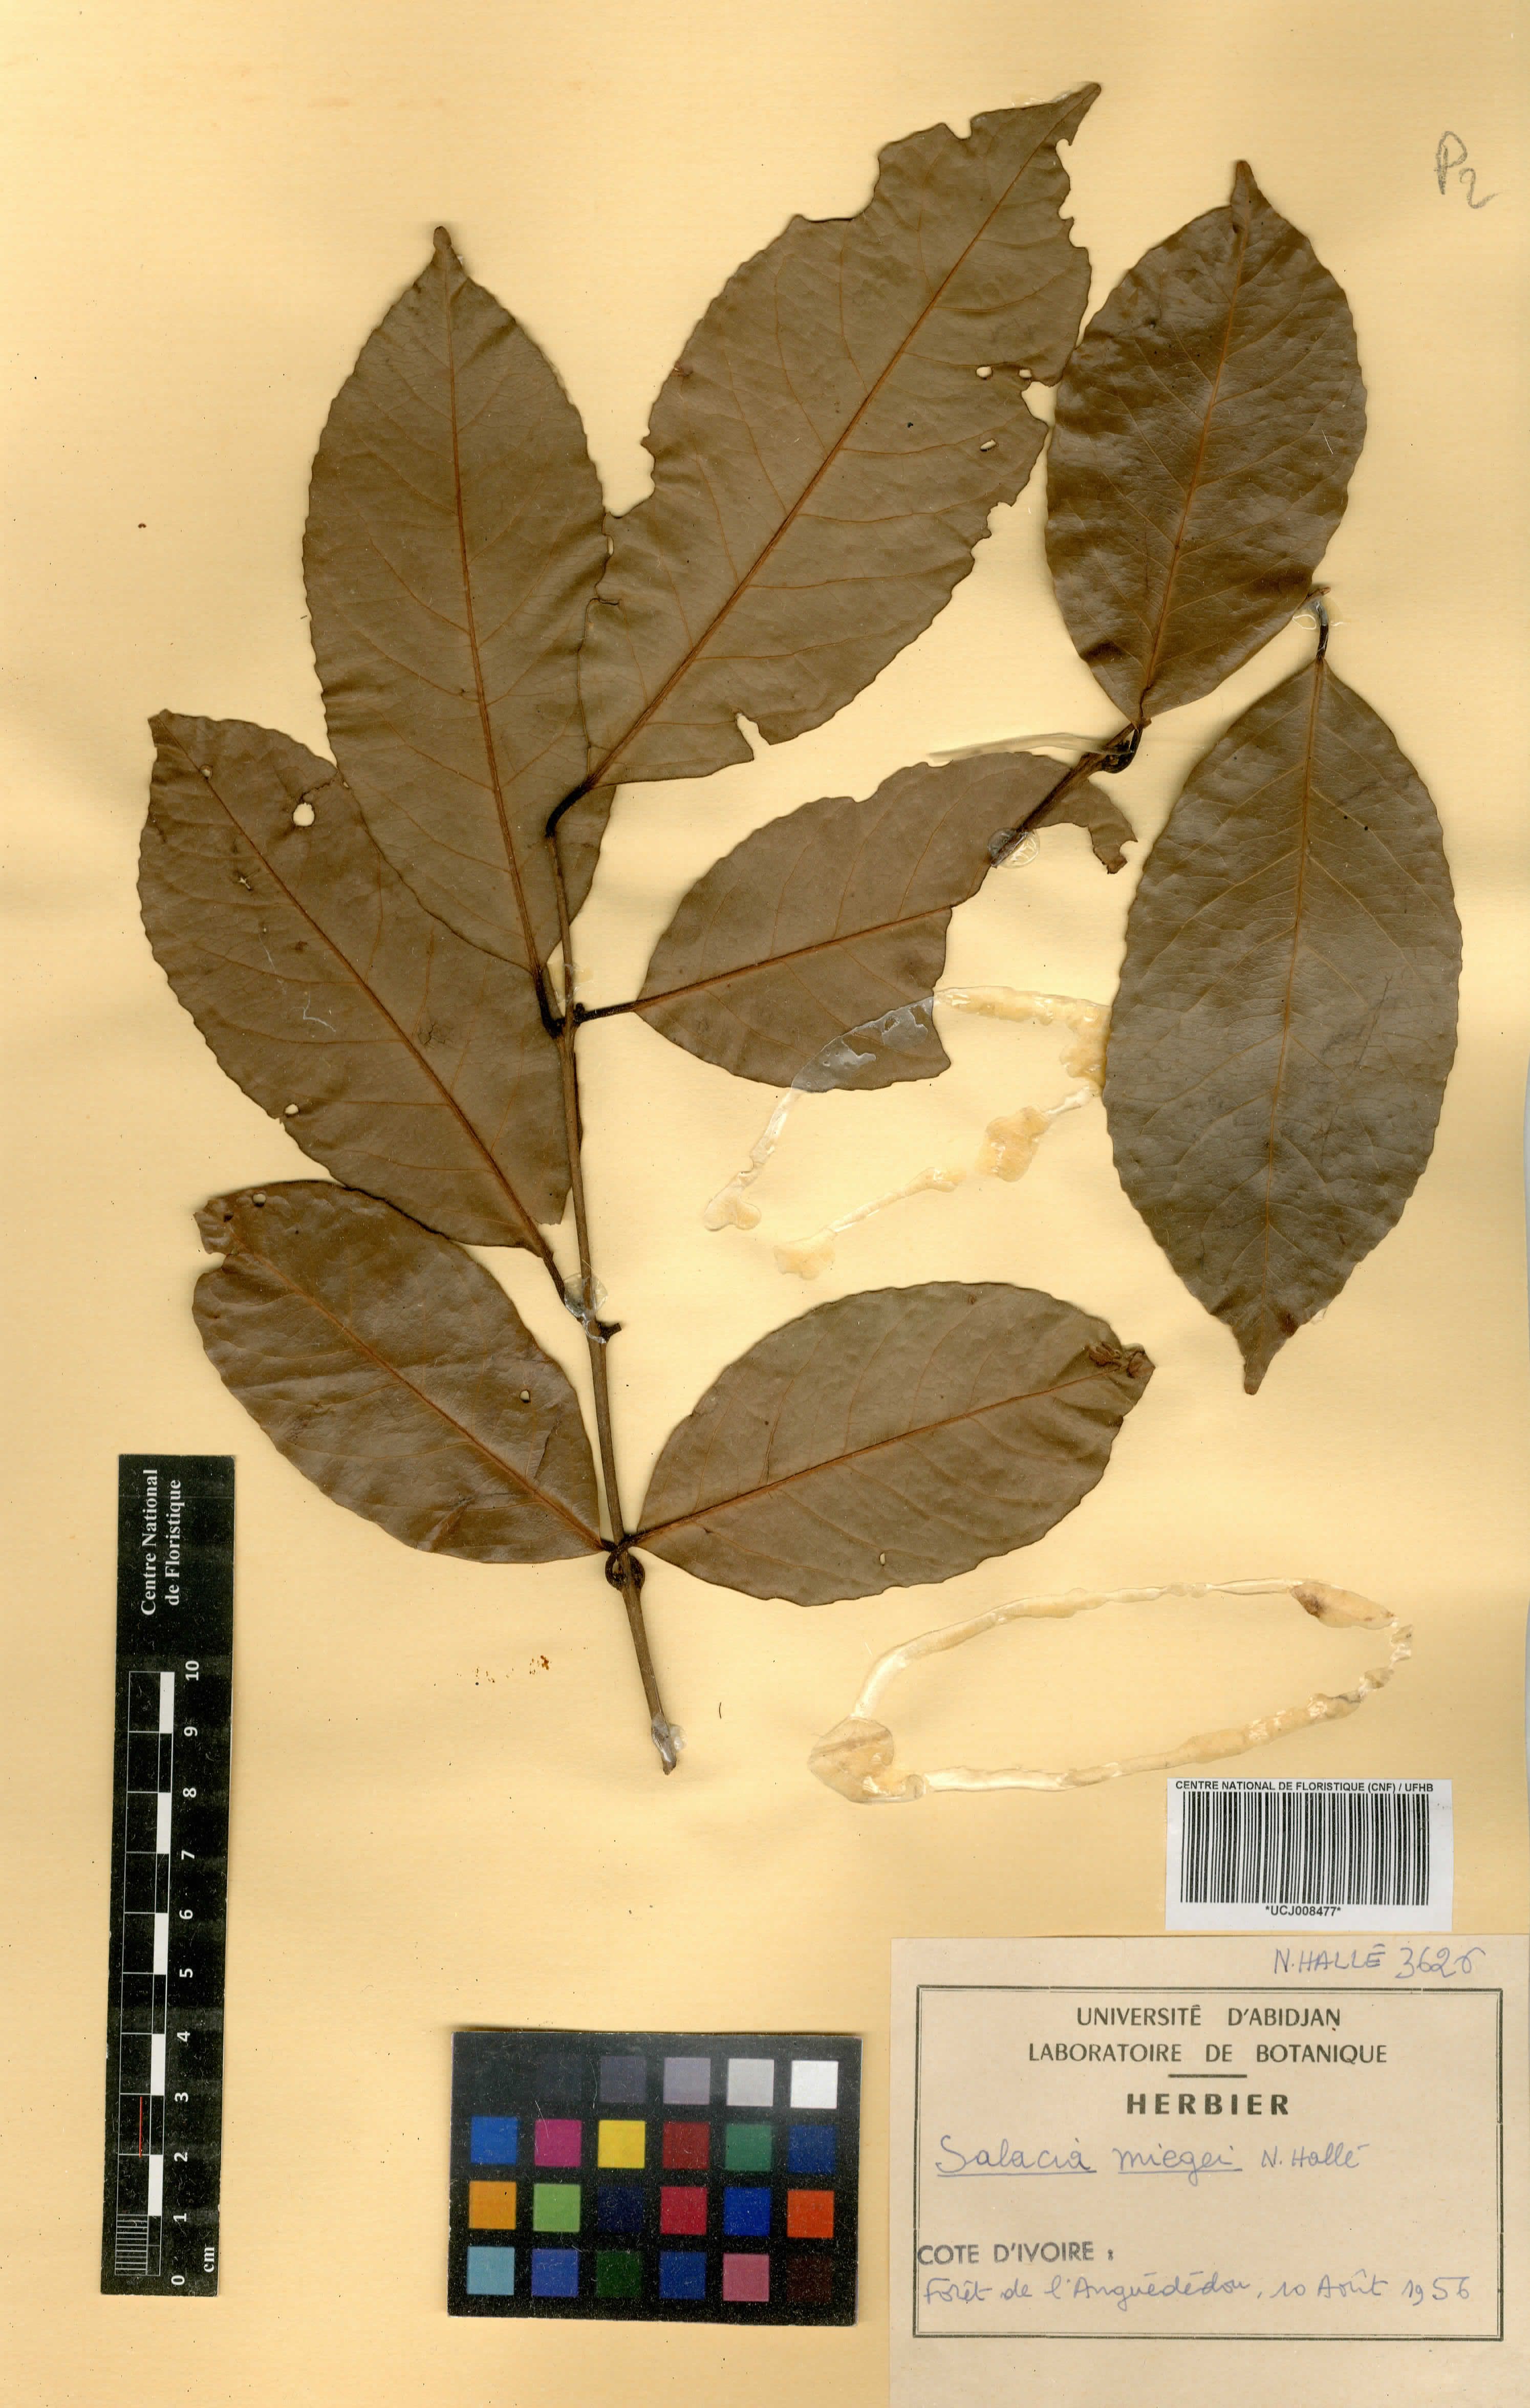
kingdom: Plantae
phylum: Tracheophyta
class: Magnoliopsida
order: Celastrales
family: Celastraceae
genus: Salacia
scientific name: Salacia miegei
